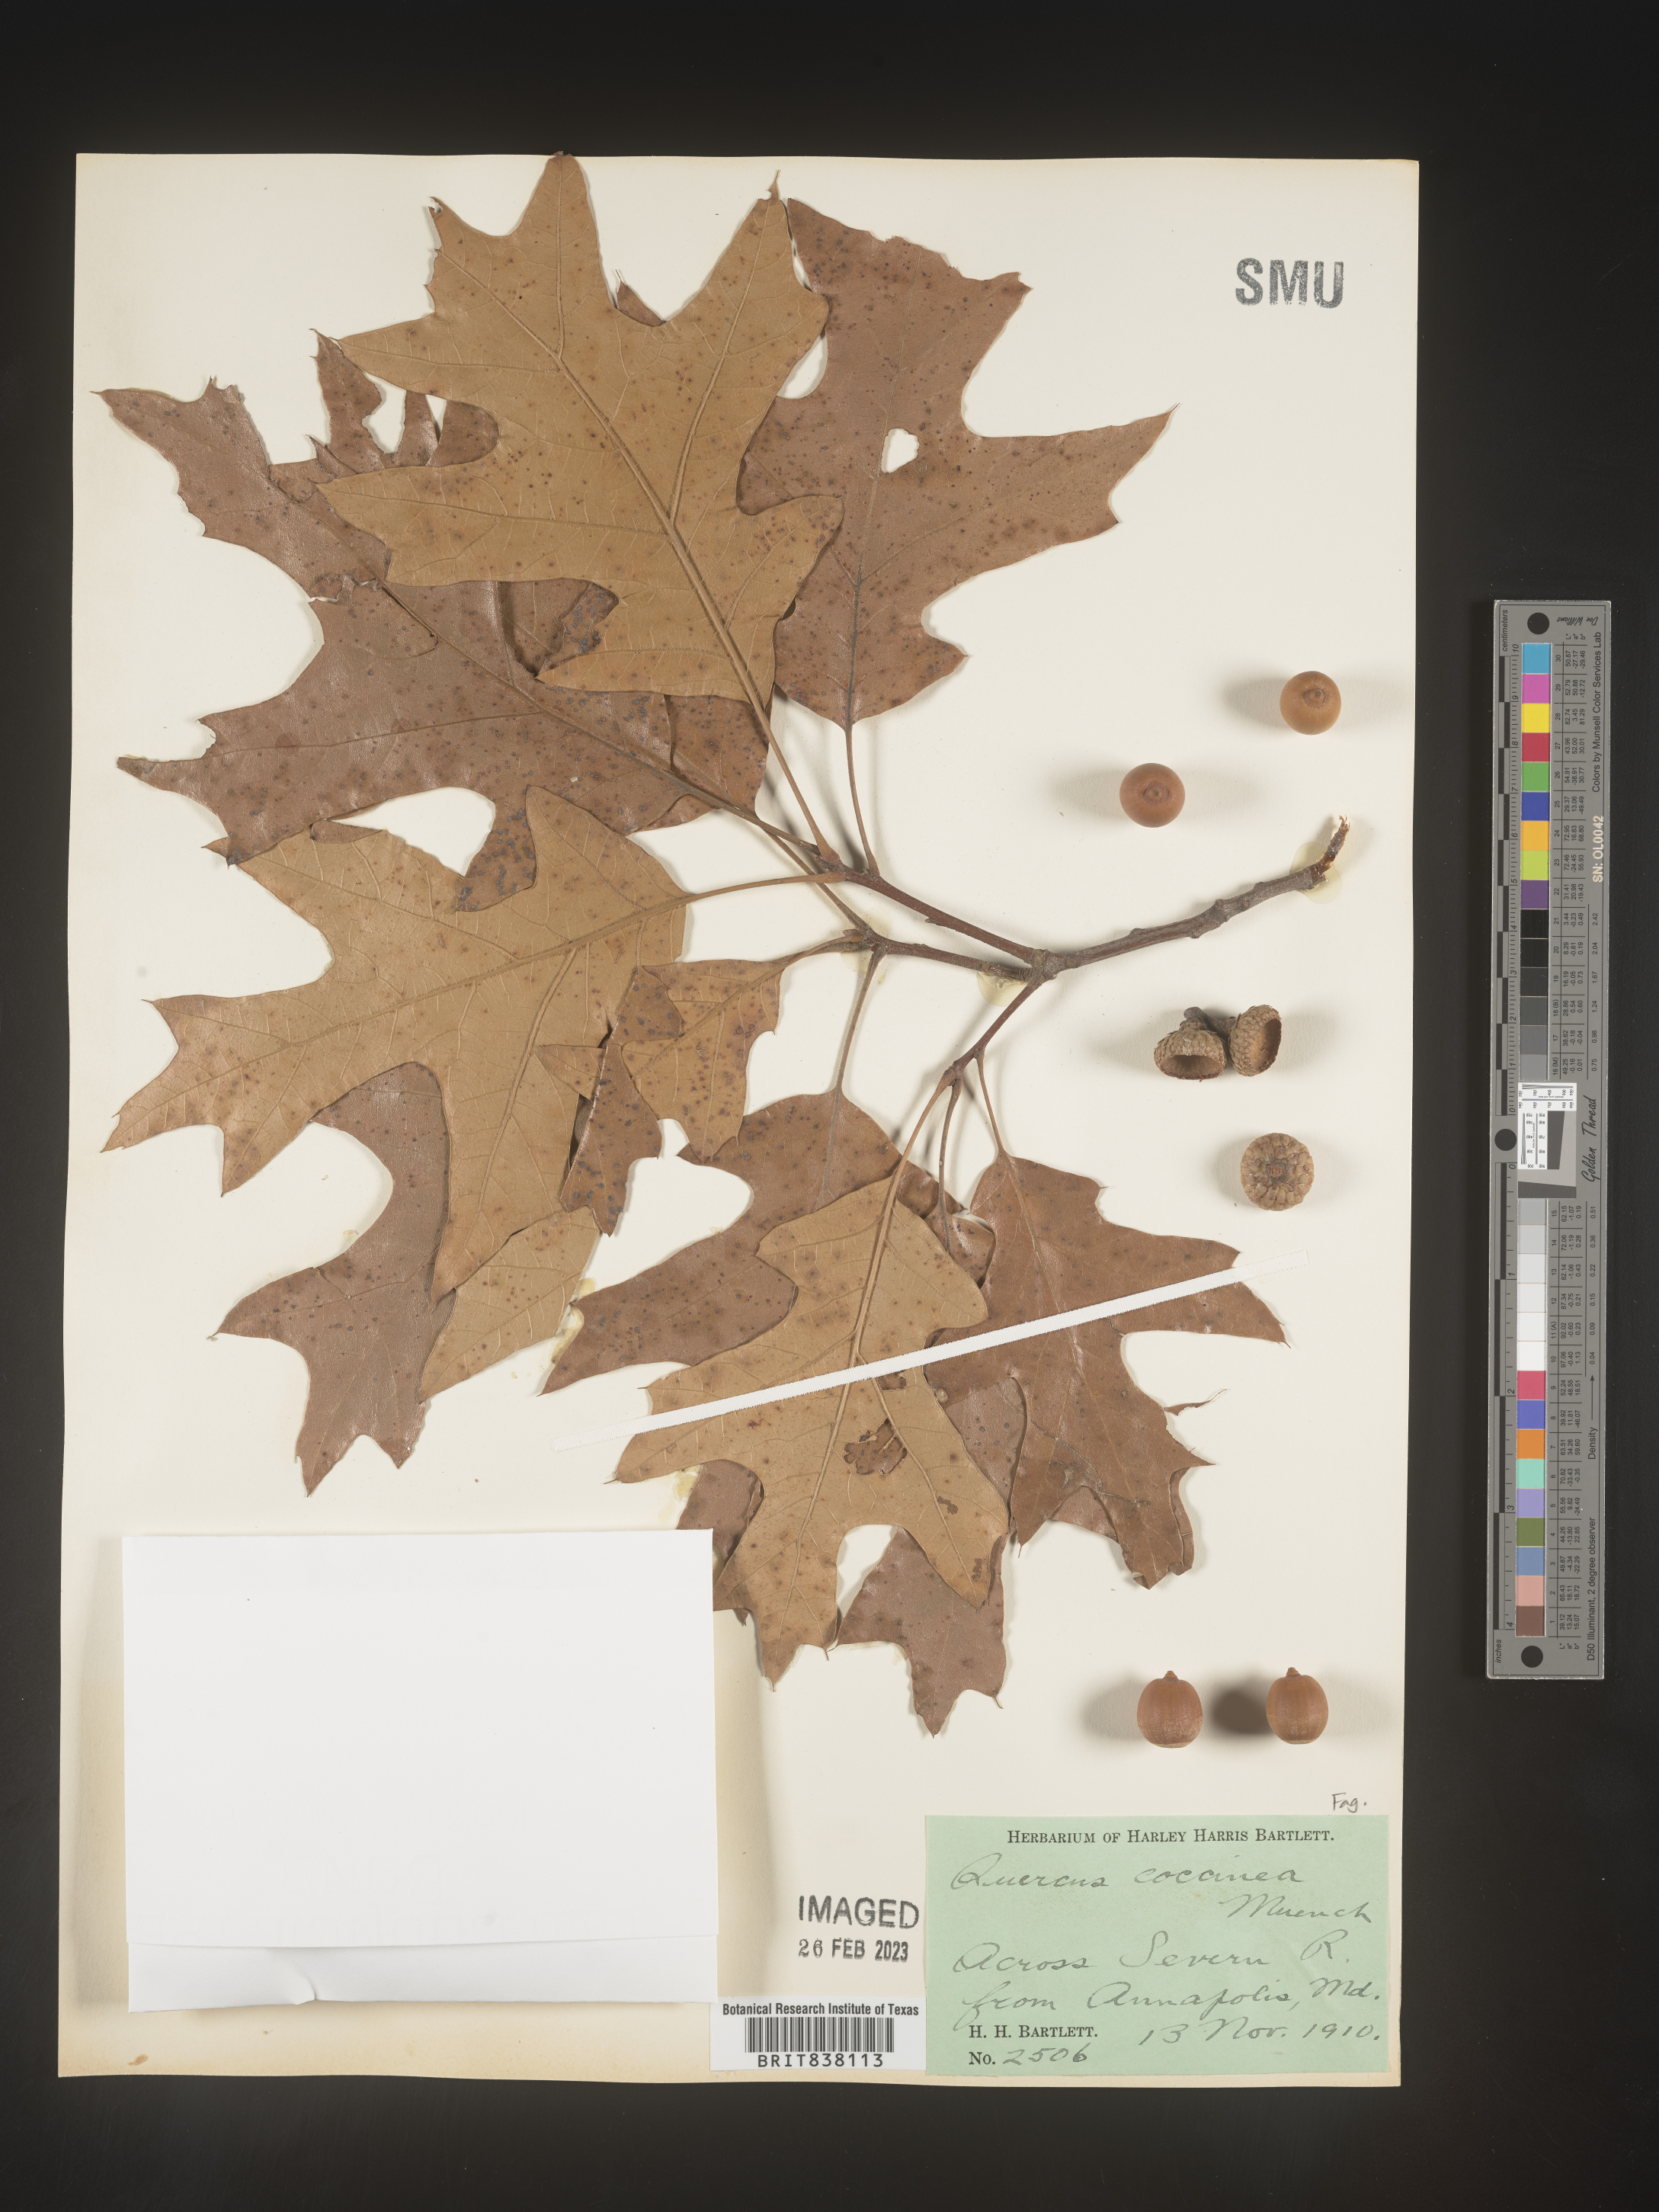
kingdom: Plantae
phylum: Tracheophyta
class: Magnoliopsida
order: Fagales
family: Fagaceae
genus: Quercus
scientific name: Quercus coccinea
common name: Scarlet oak
